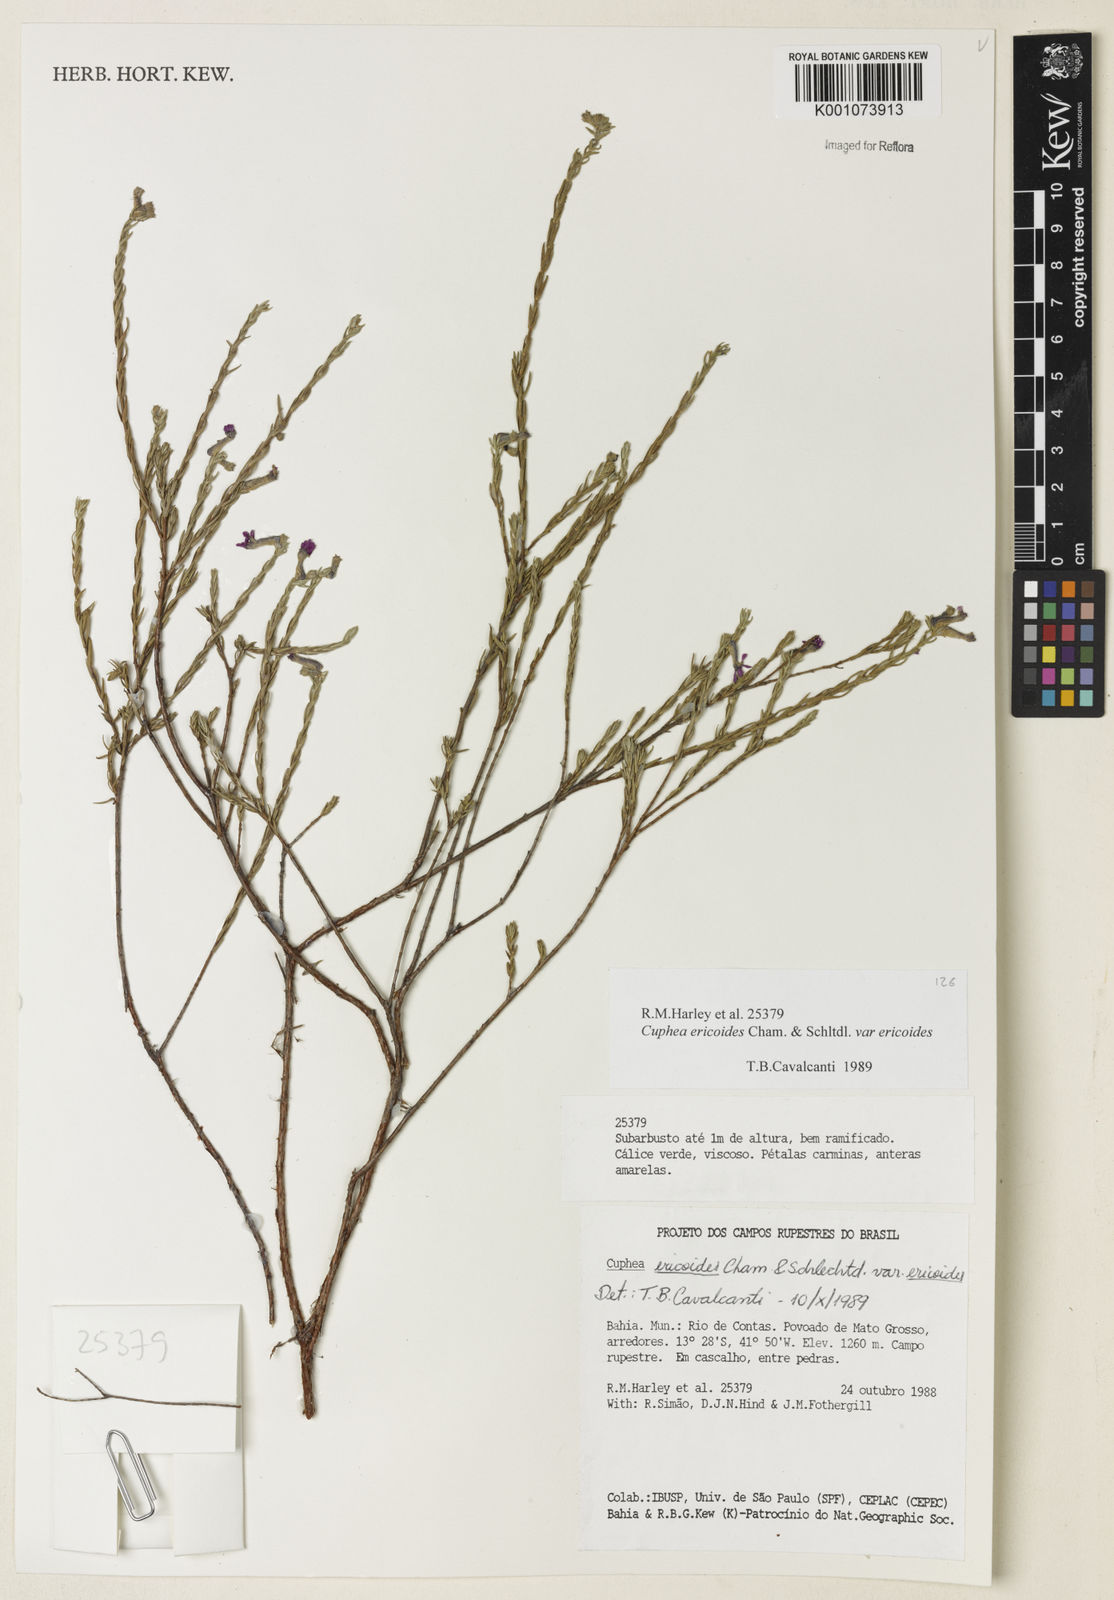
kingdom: Plantae
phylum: Tracheophyta
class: Magnoliopsida
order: Myrtales
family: Lythraceae
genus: Cuphea
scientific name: Cuphea ericoides
